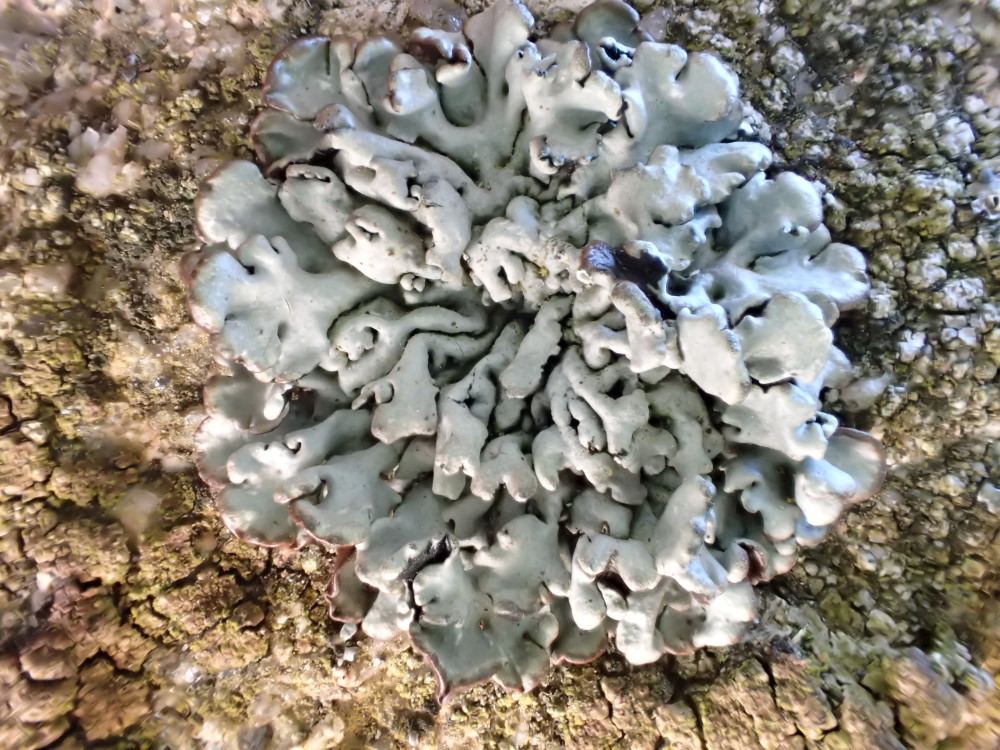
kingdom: Fungi
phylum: Ascomycota
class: Lecanoromycetes
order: Lecanorales
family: Parmeliaceae
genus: Hypogymnia
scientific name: Hypogymnia physodes
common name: almindelig kvistlav
